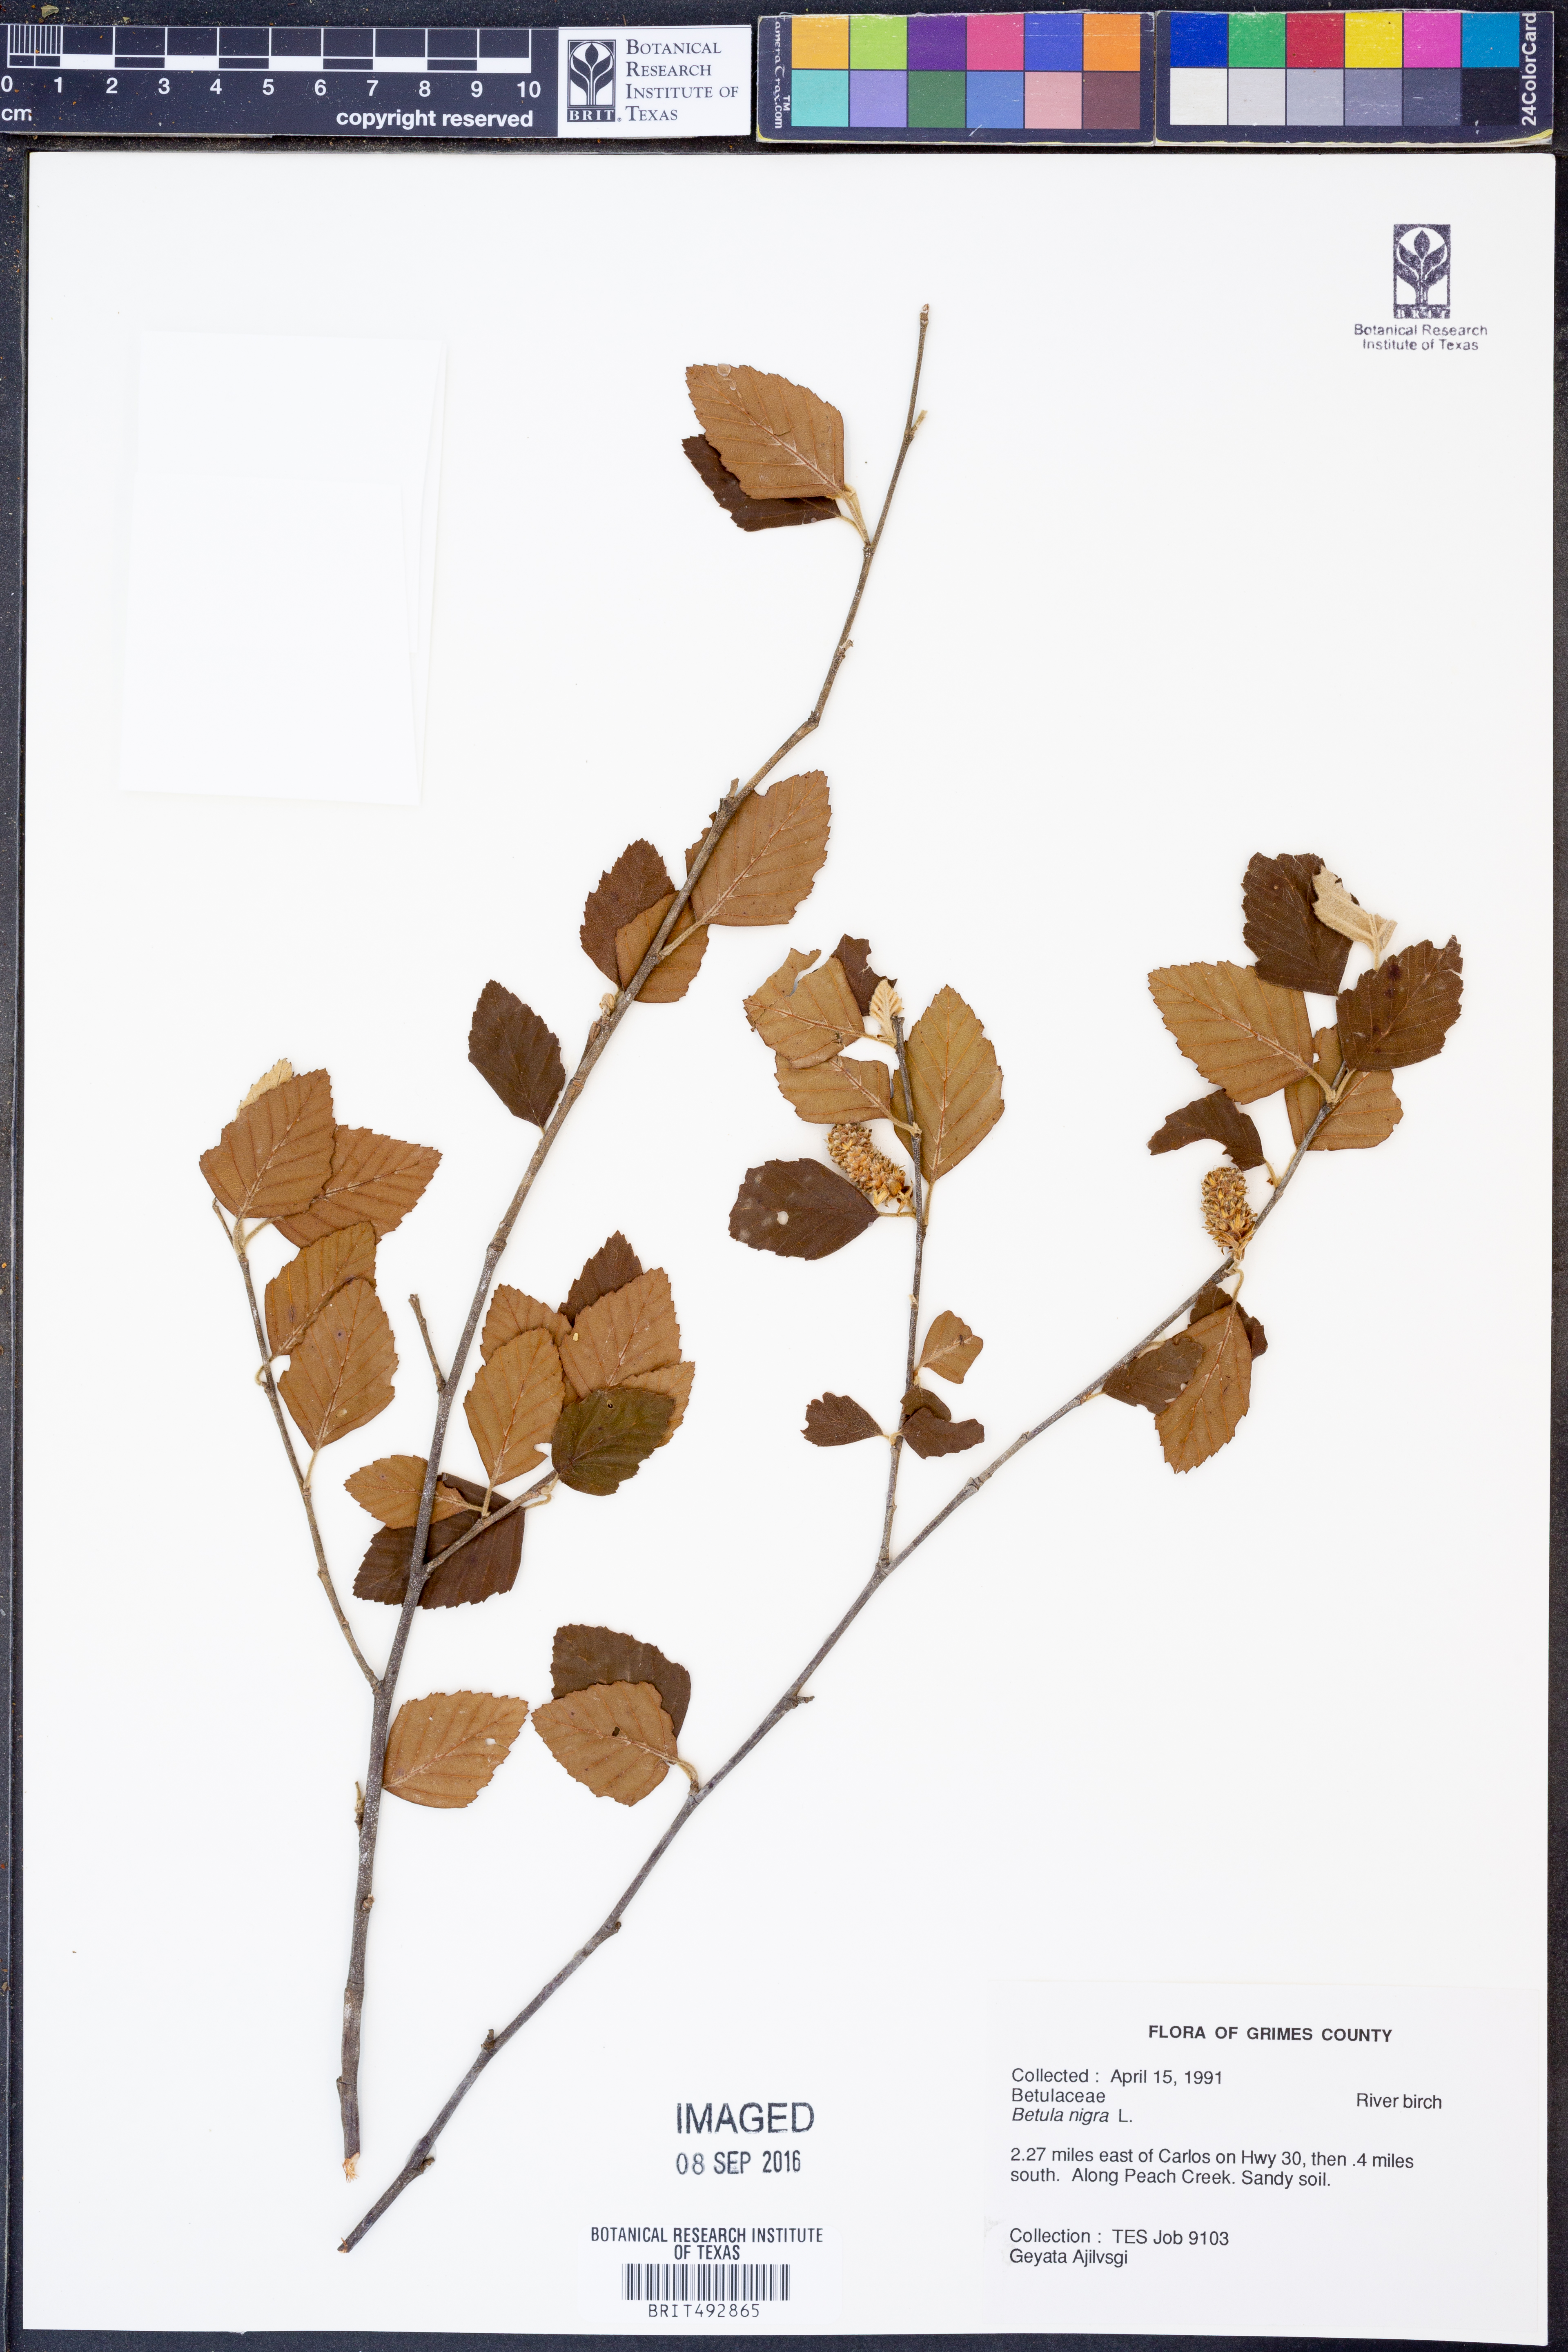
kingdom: Plantae
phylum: Tracheophyta
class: Magnoliopsida
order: Fagales
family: Betulaceae
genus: Betula
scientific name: Betula nigra
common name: Black birch
